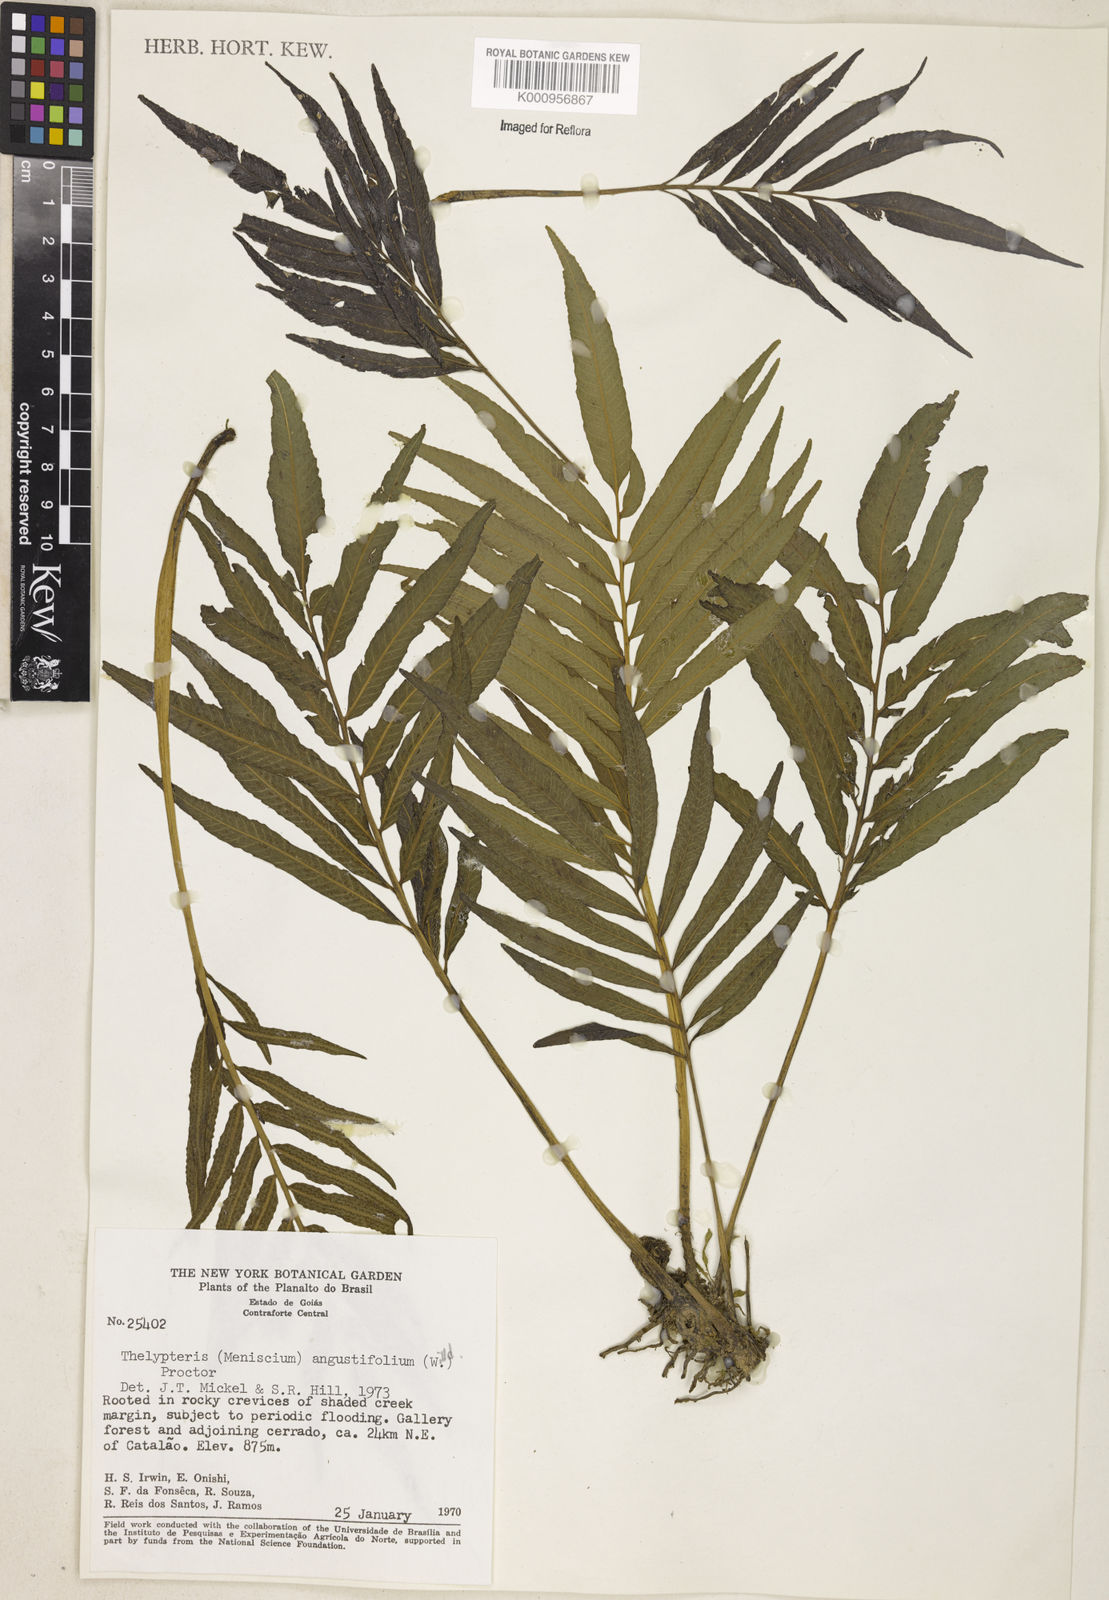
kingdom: Plantae
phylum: Tracheophyta
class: Polypodiopsida
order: Polypodiales
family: Thelypteridaceae
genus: Meniscium
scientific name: Meniscium angustifolium
